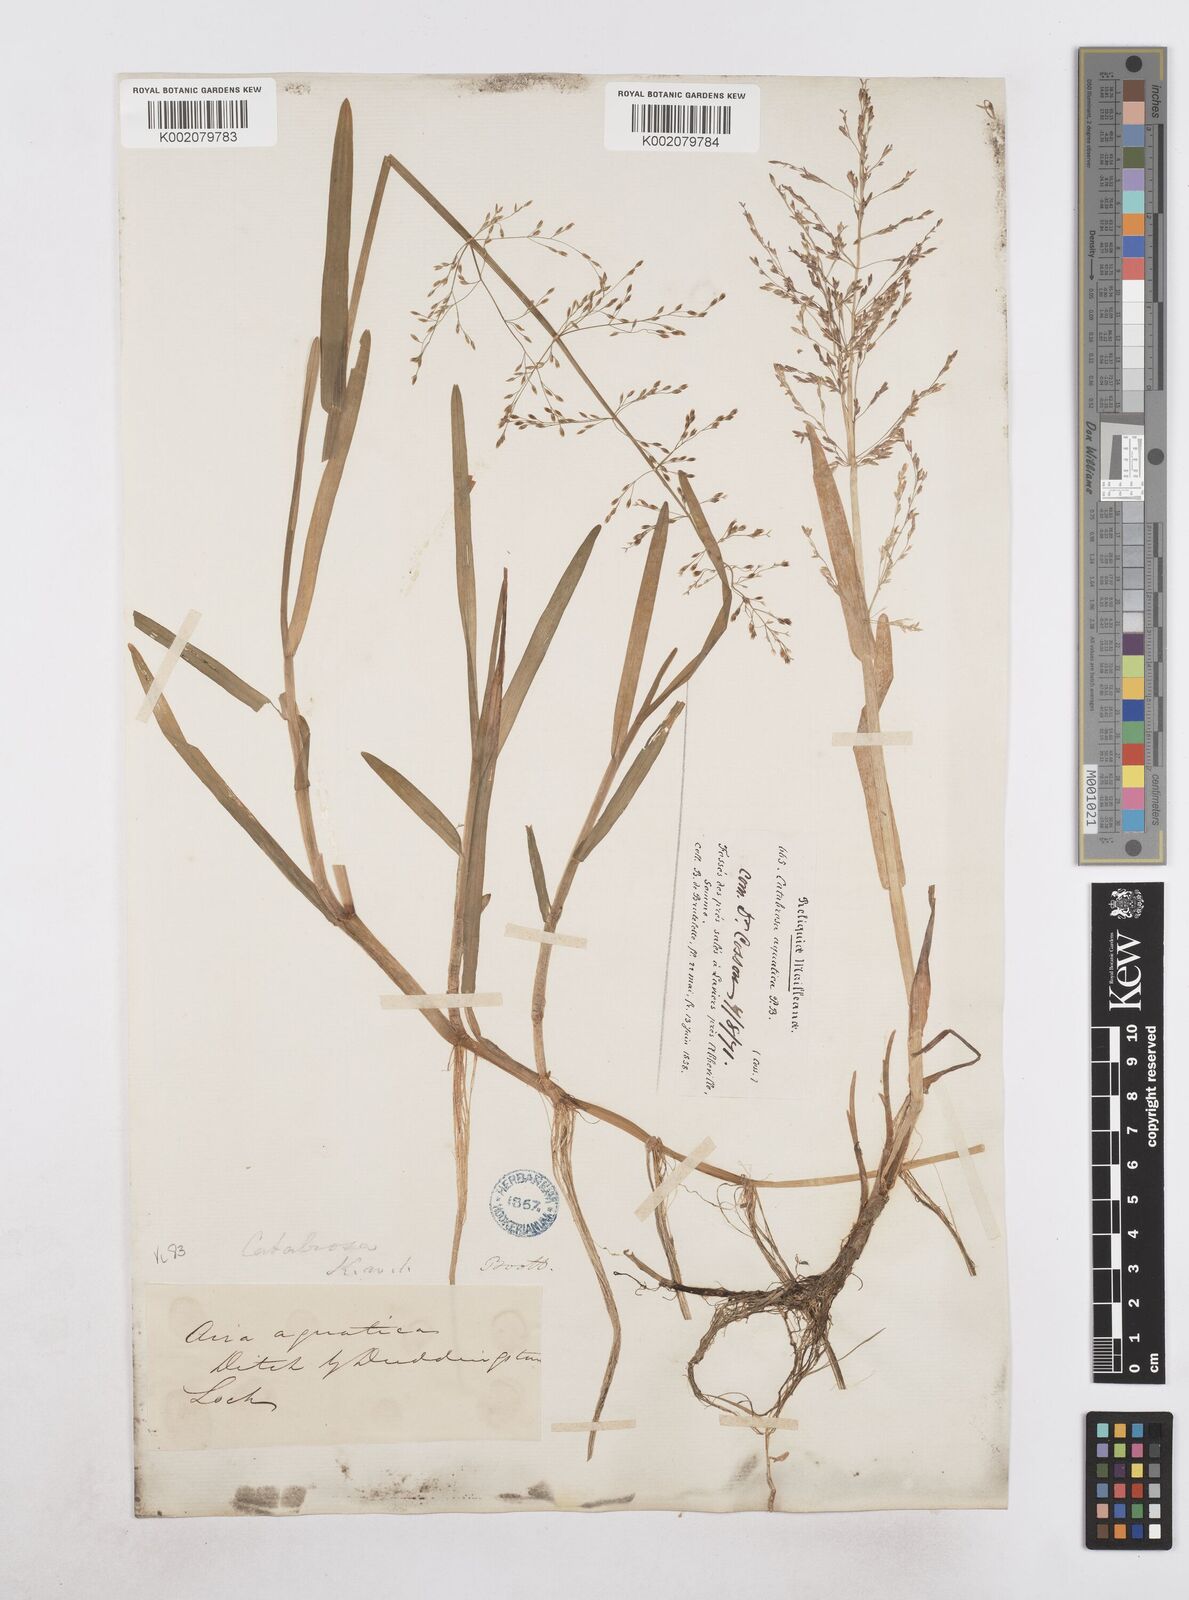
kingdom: Plantae
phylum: Tracheophyta
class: Liliopsida
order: Poales
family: Poaceae
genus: Catabrosa
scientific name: Catabrosa aquatica
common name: Whorl-grass
